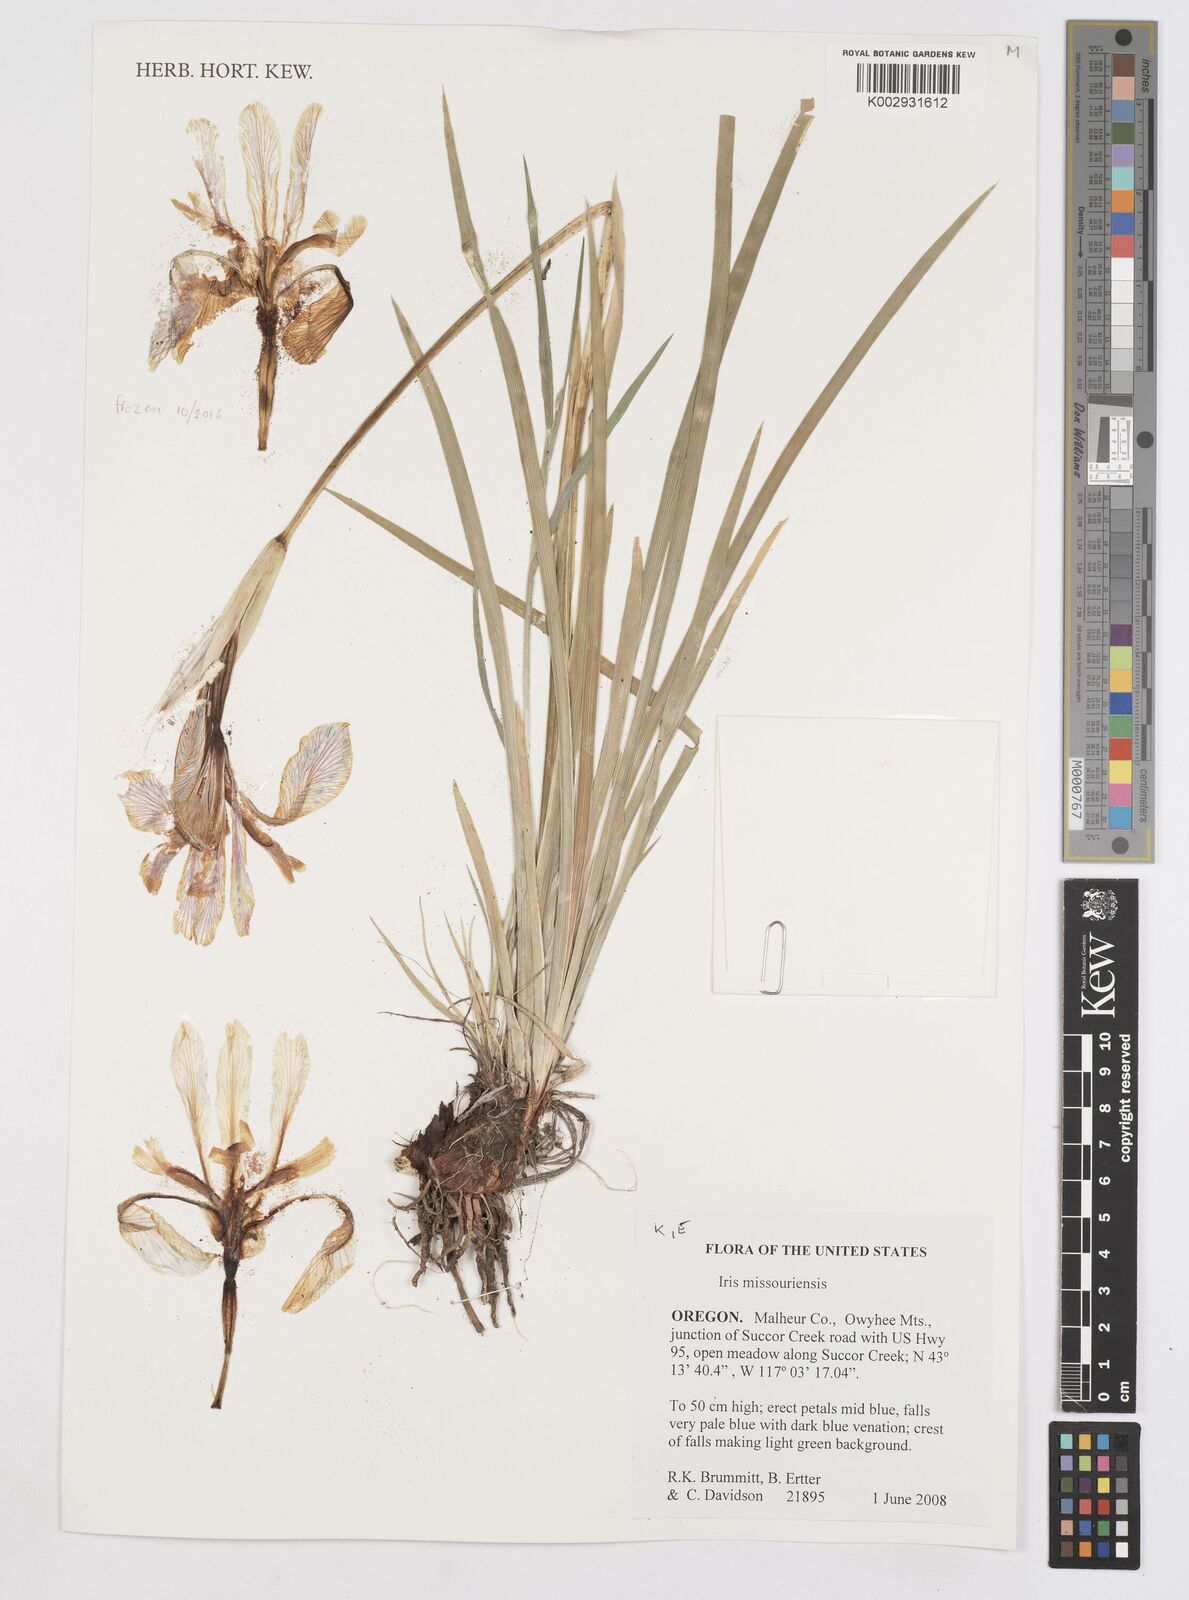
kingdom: Plantae
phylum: Tracheophyta
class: Liliopsida
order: Asparagales
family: Iridaceae
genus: Iris
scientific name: Iris missouriensis
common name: Rocky mountain iris
